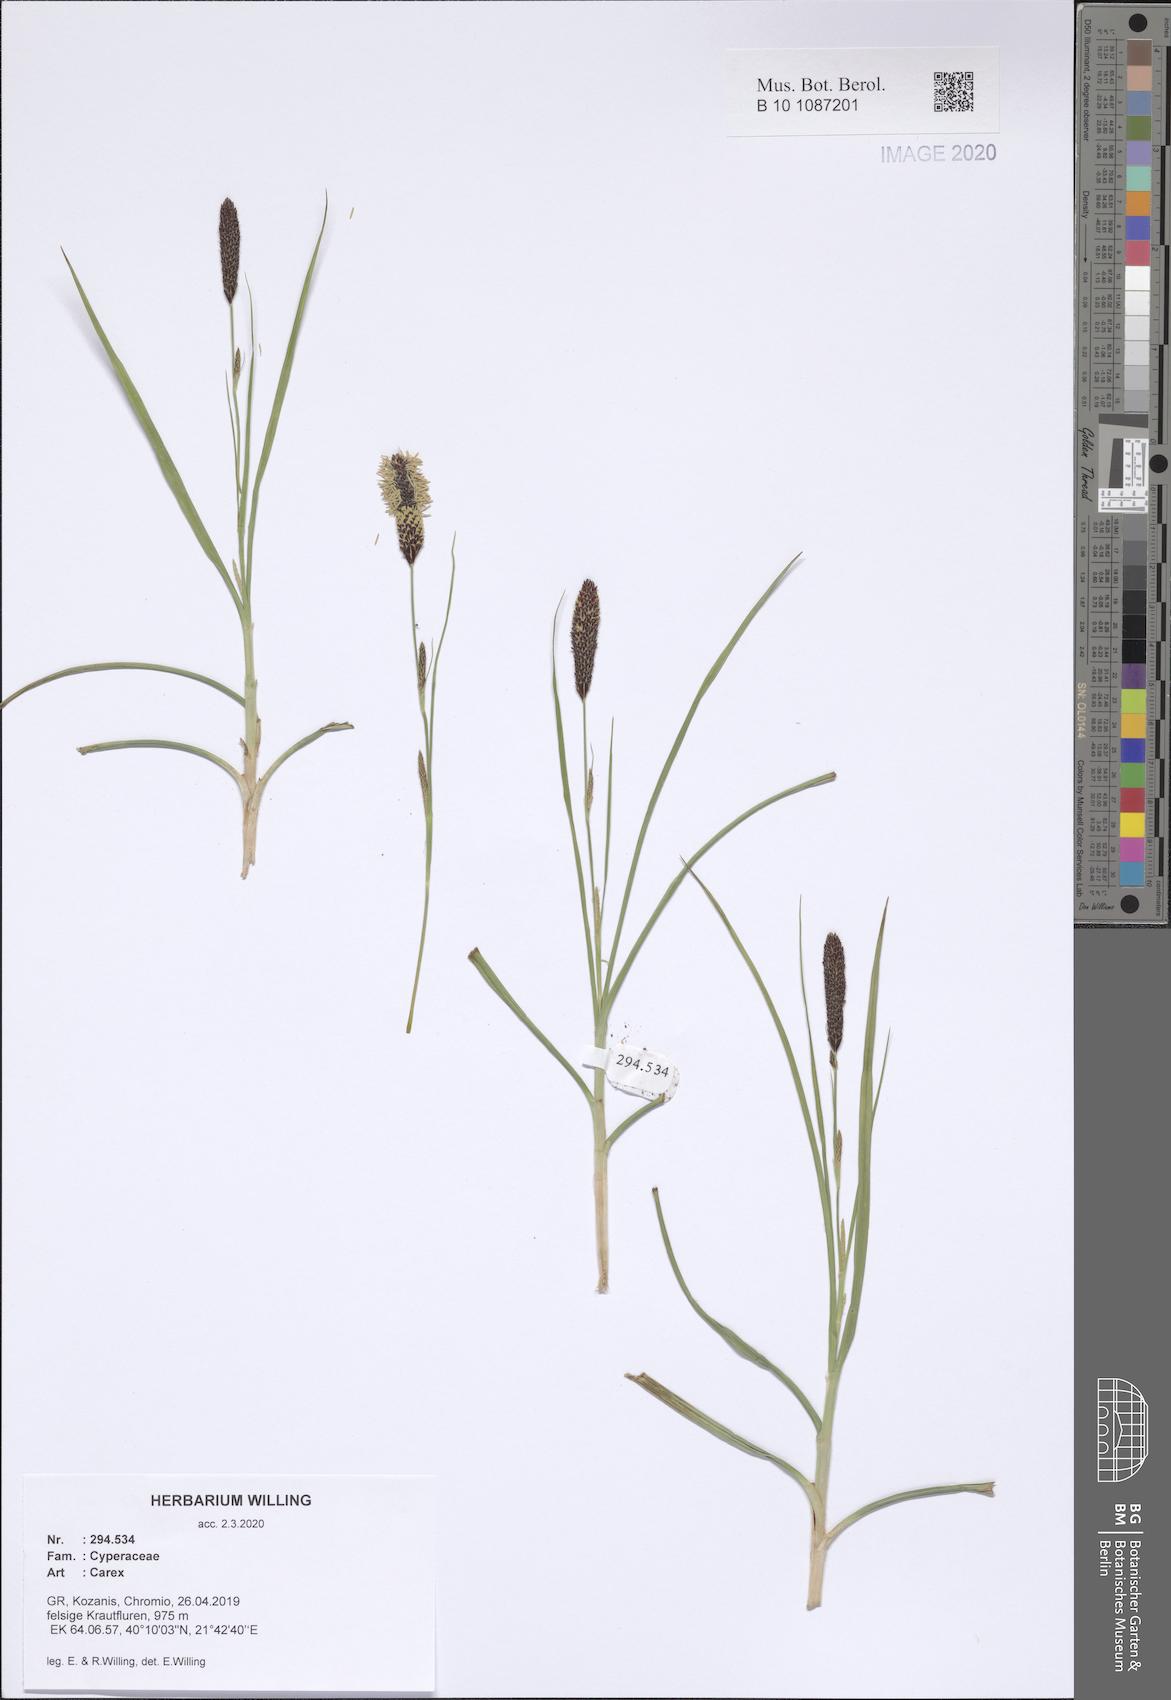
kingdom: Plantae
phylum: Tracheophyta
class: Liliopsida
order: Poales
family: Cyperaceae
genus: Carex
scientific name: Carex
